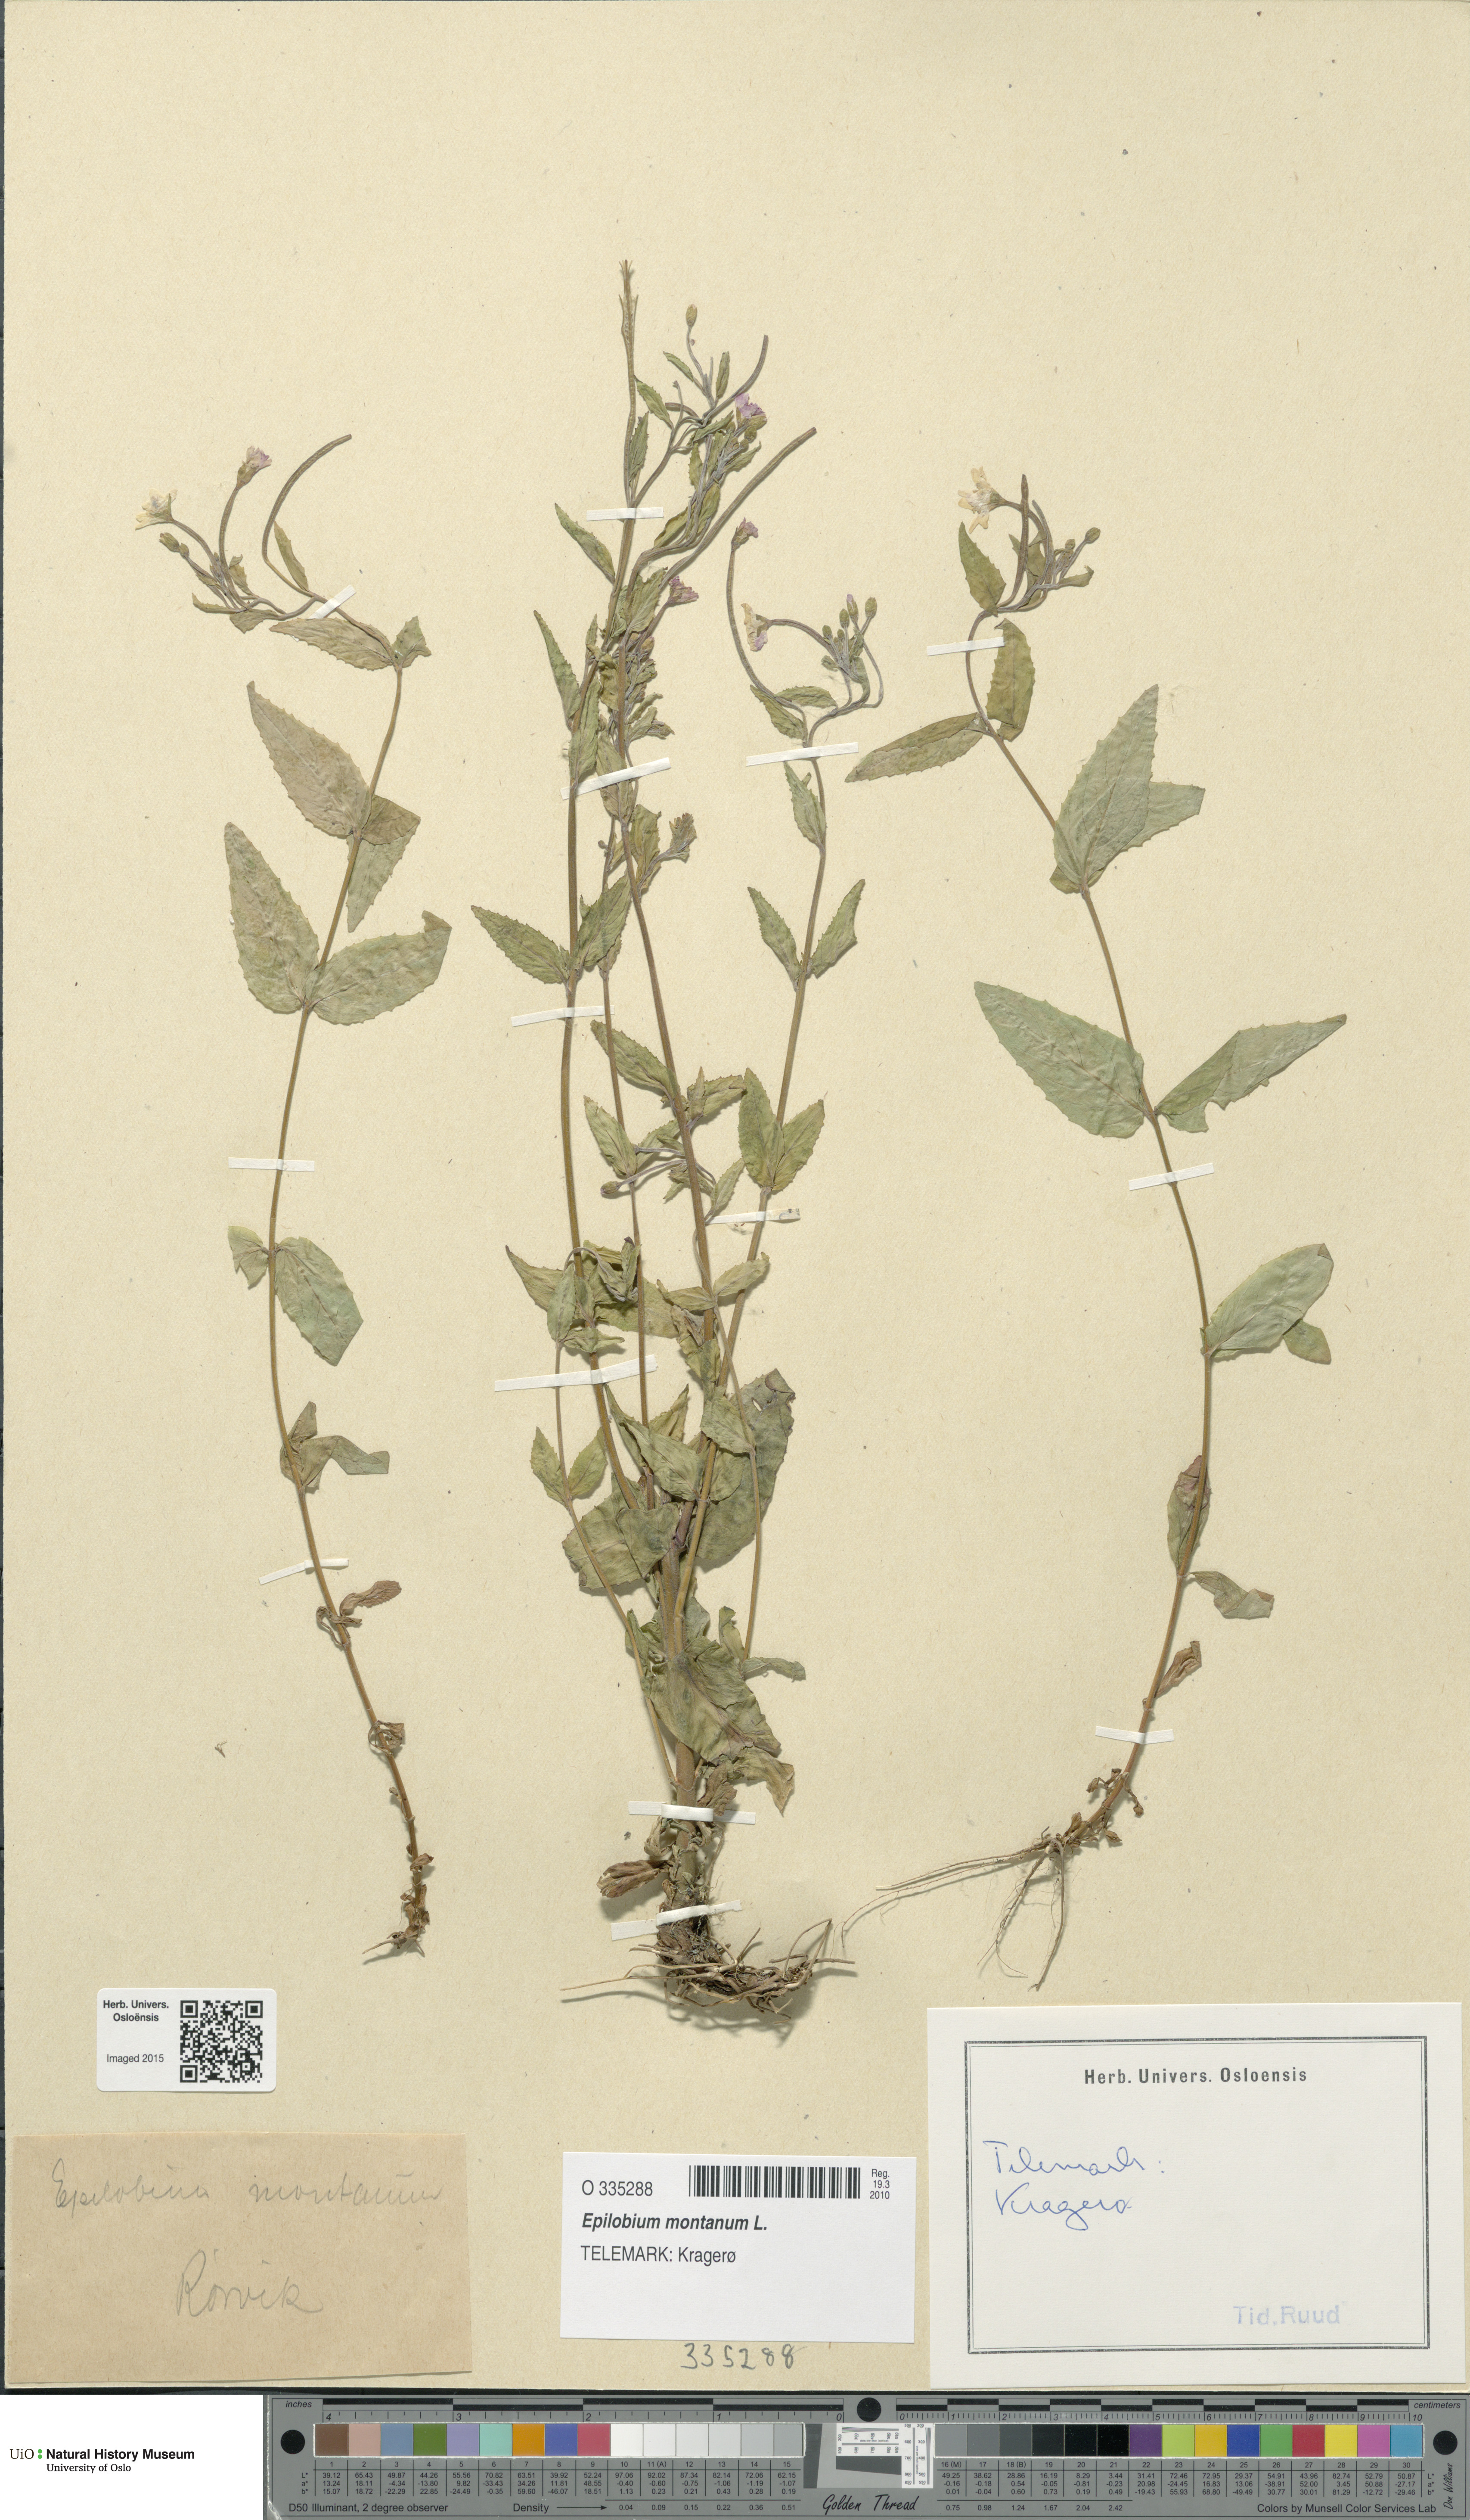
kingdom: Plantae
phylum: Tracheophyta
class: Magnoliopsida
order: Myrtales
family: Onagraceae
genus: Epilobium
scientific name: Epilobium montanum
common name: Broad-leaved willowherb
